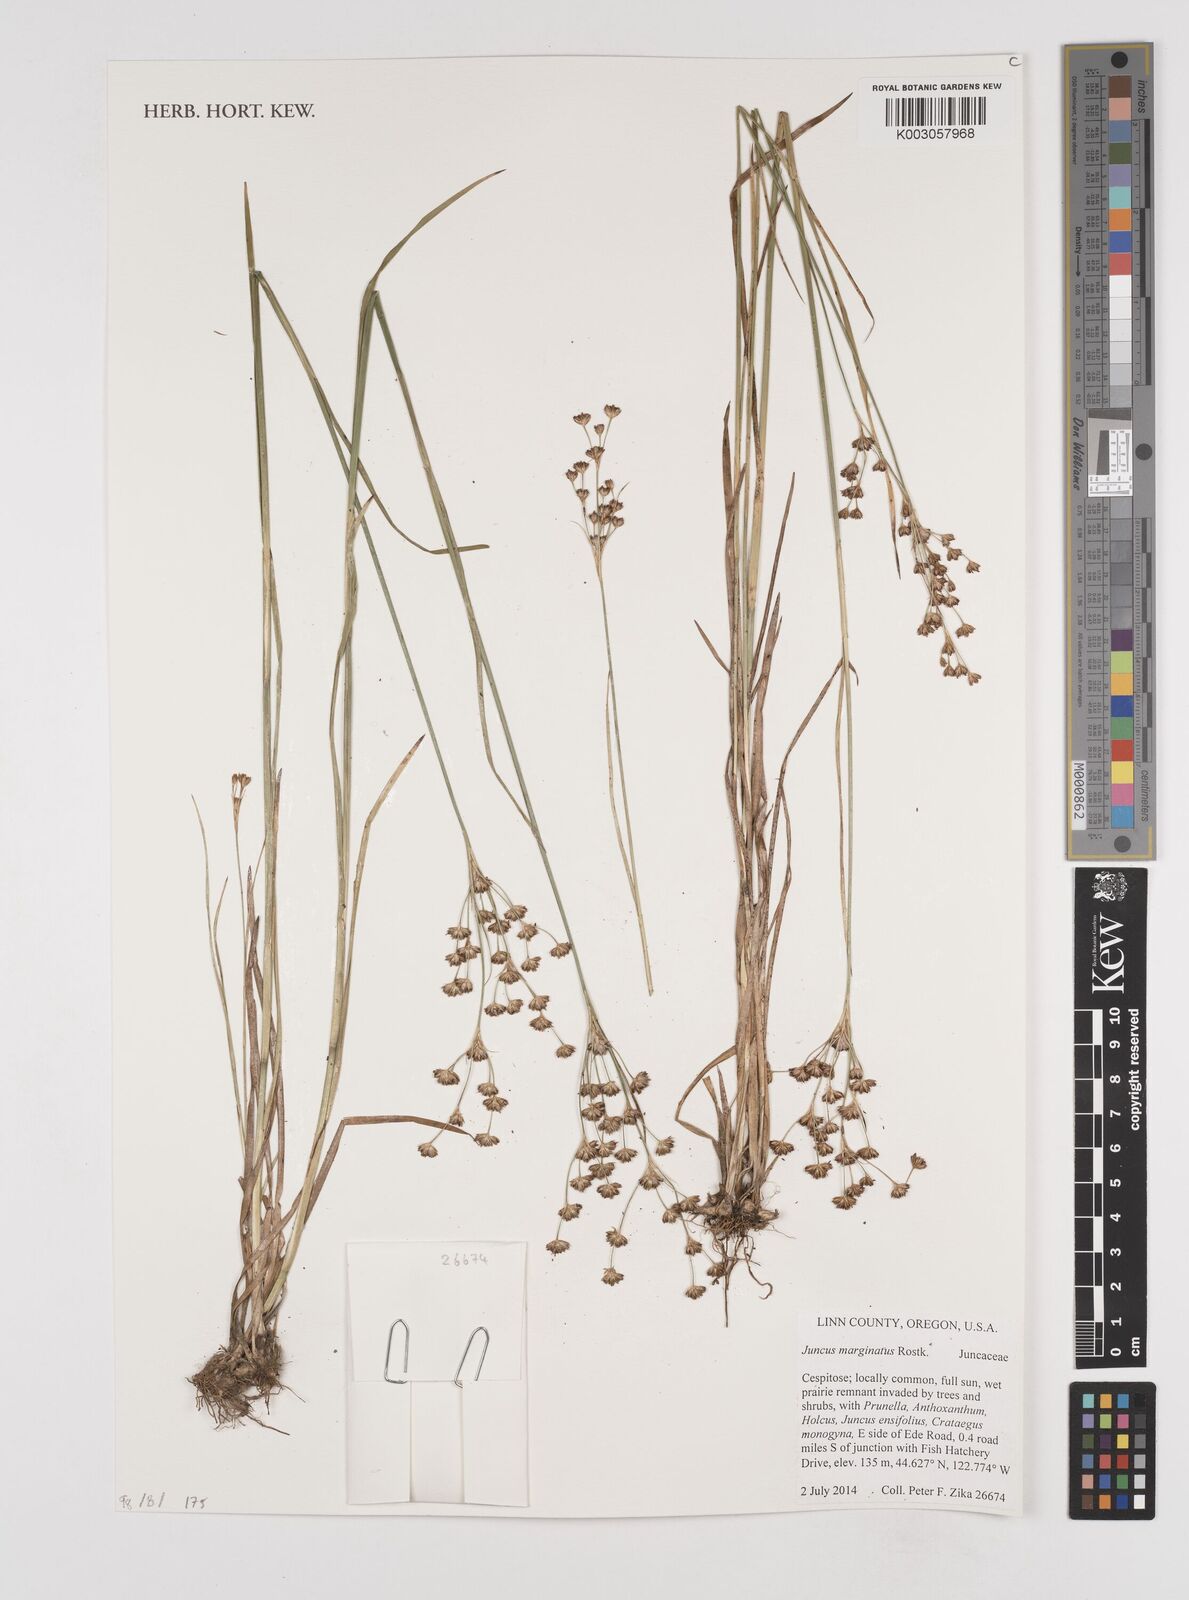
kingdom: Plantae
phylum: Tracheophyta
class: Liliopsida
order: Poales
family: Juncaceae
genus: Juncus
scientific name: Juncus marginatus
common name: Grass-leaf rush
